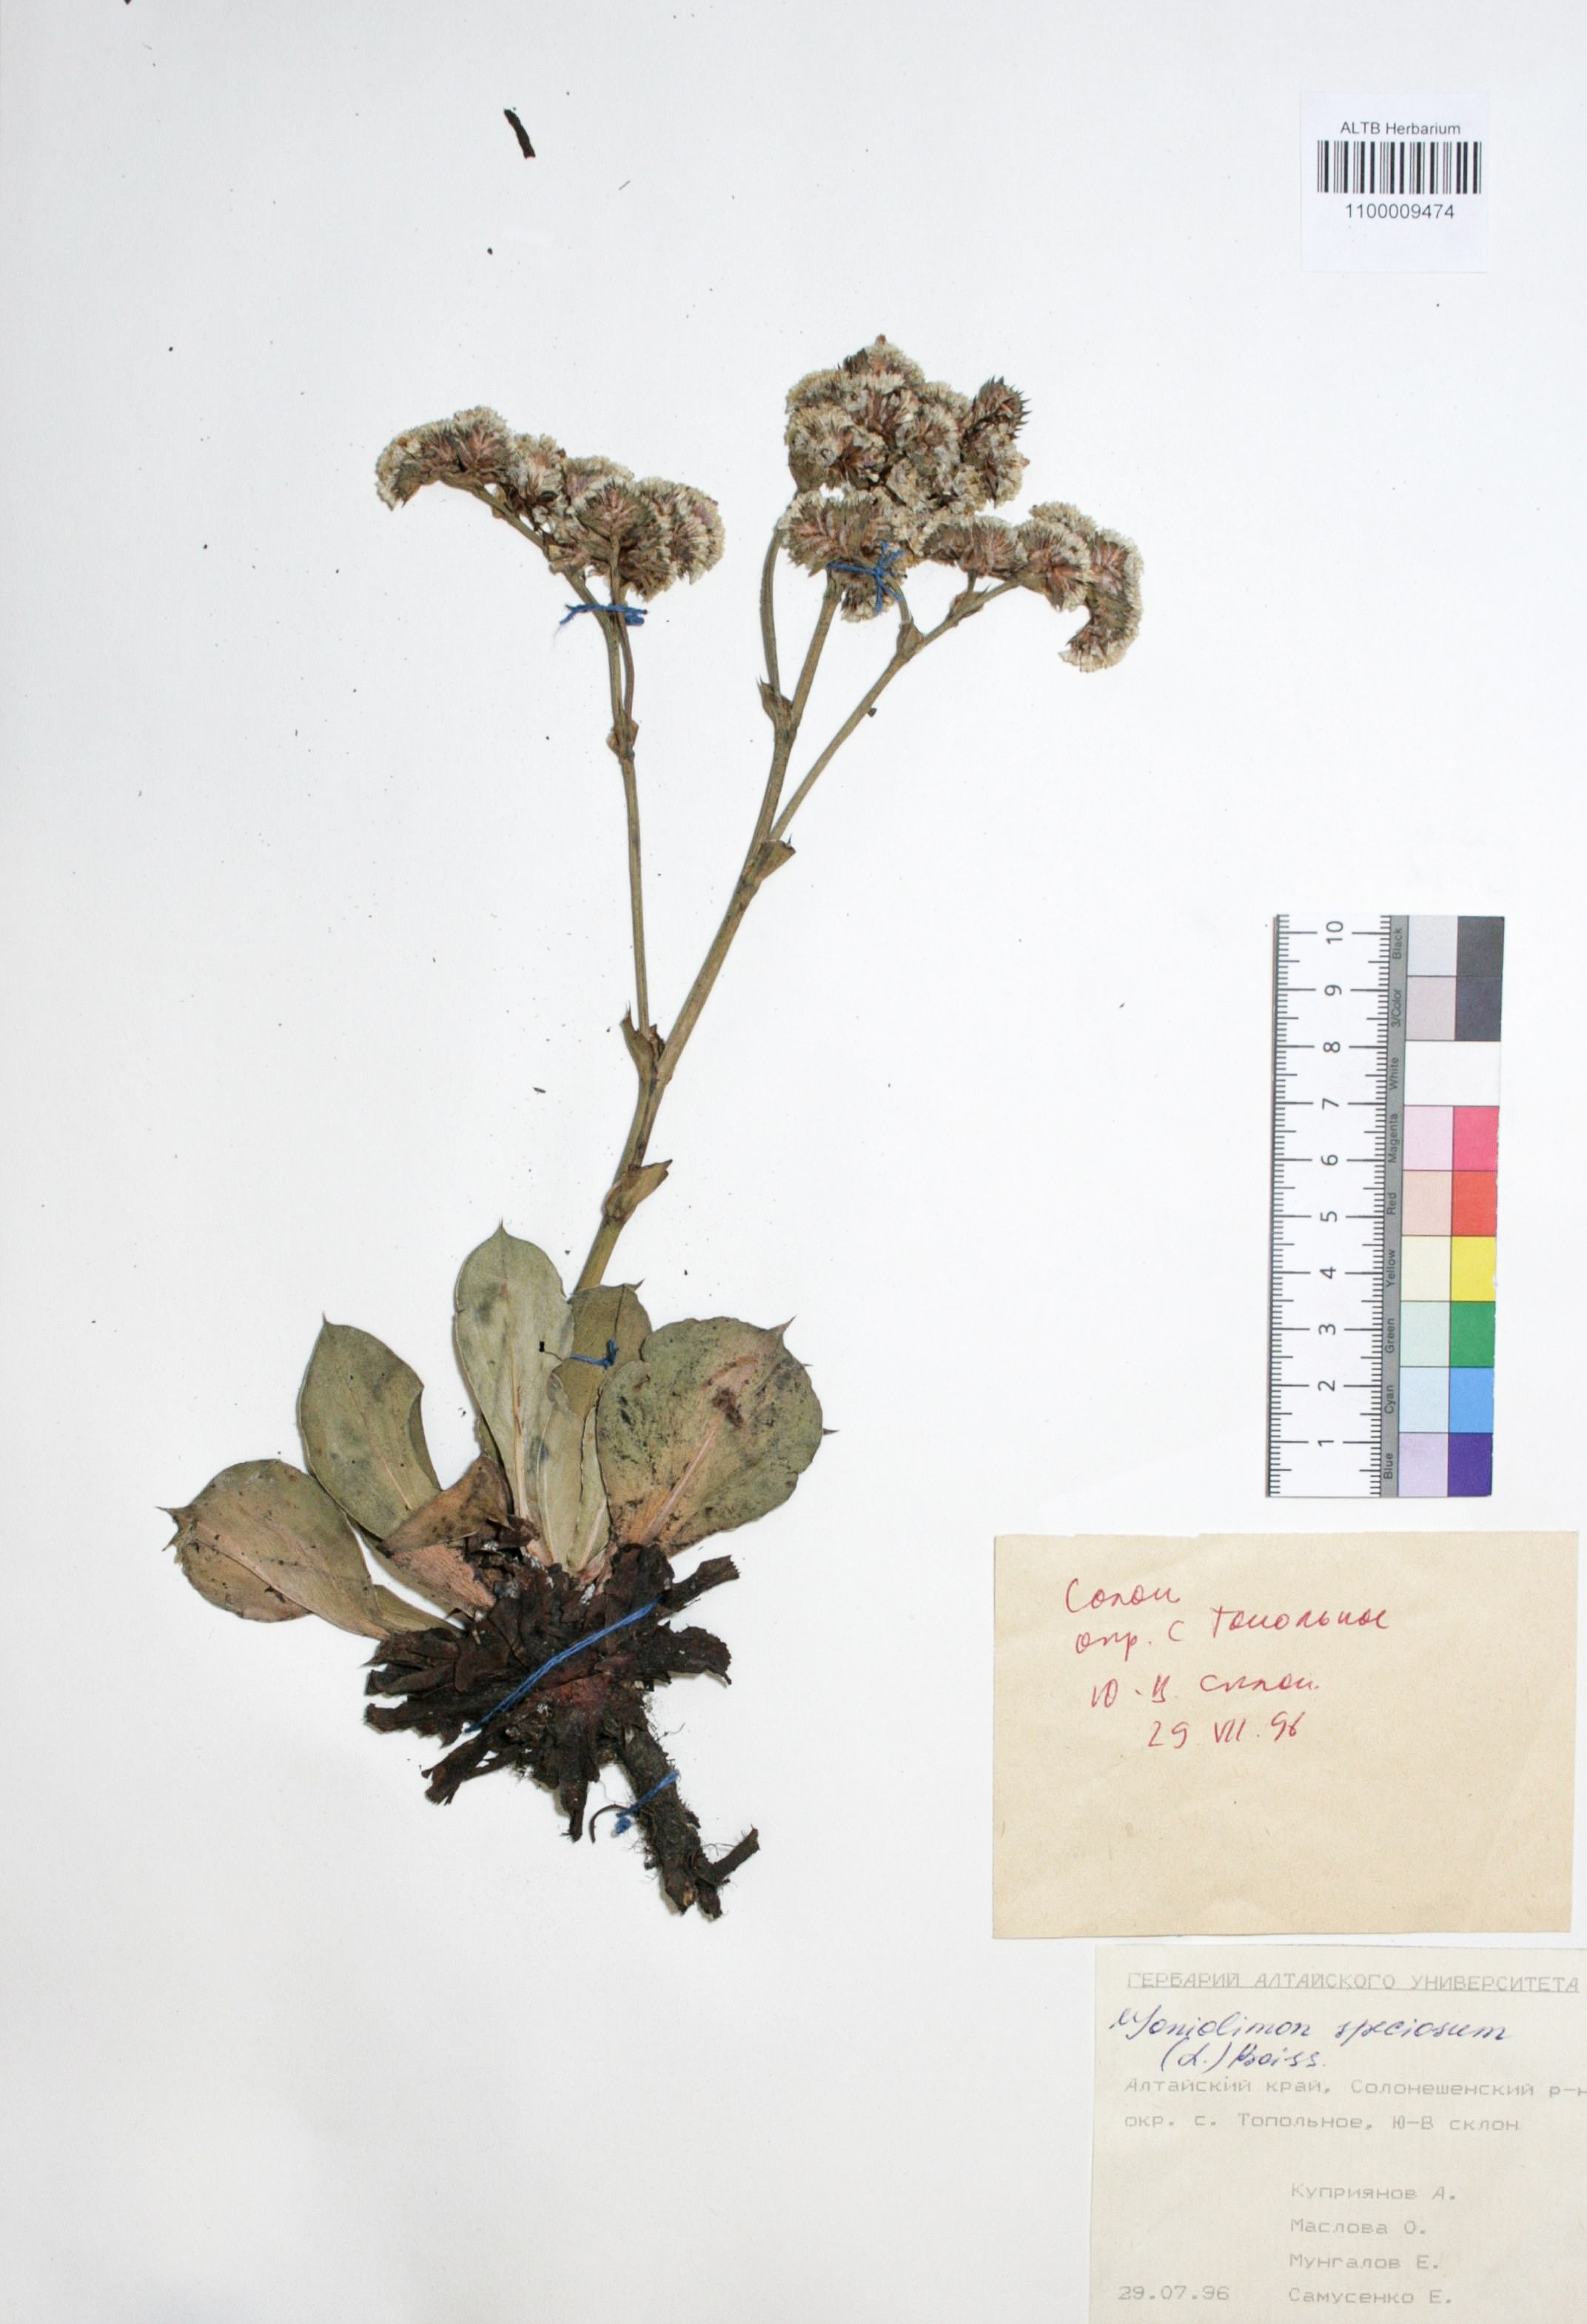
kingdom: Plantae
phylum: Tracheophyta
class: Magnoliopsida
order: Caryophyllales
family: Plumbaginaceae
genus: Goniolimon
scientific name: Goniolimon speciosum
